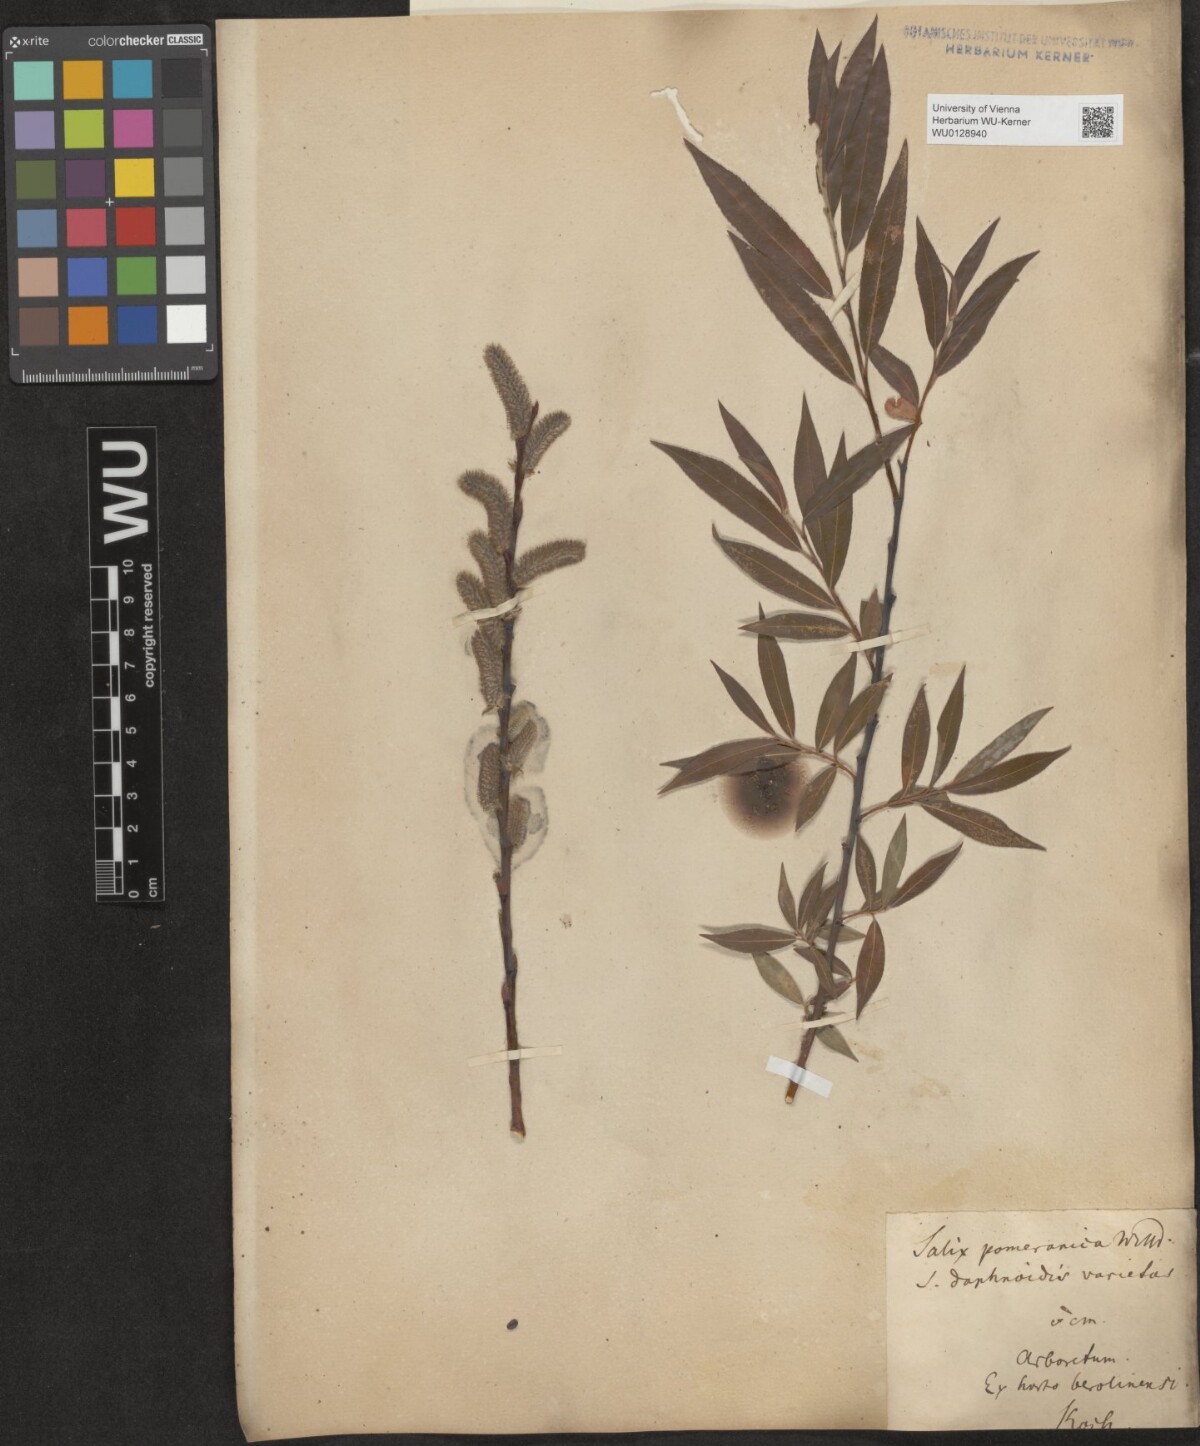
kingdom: Plantae
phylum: Tracheophyta
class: Magnoliopsida
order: Malpighiales
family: Salicaceae
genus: Salix
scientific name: Salix daphnoides
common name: European violet-willow
